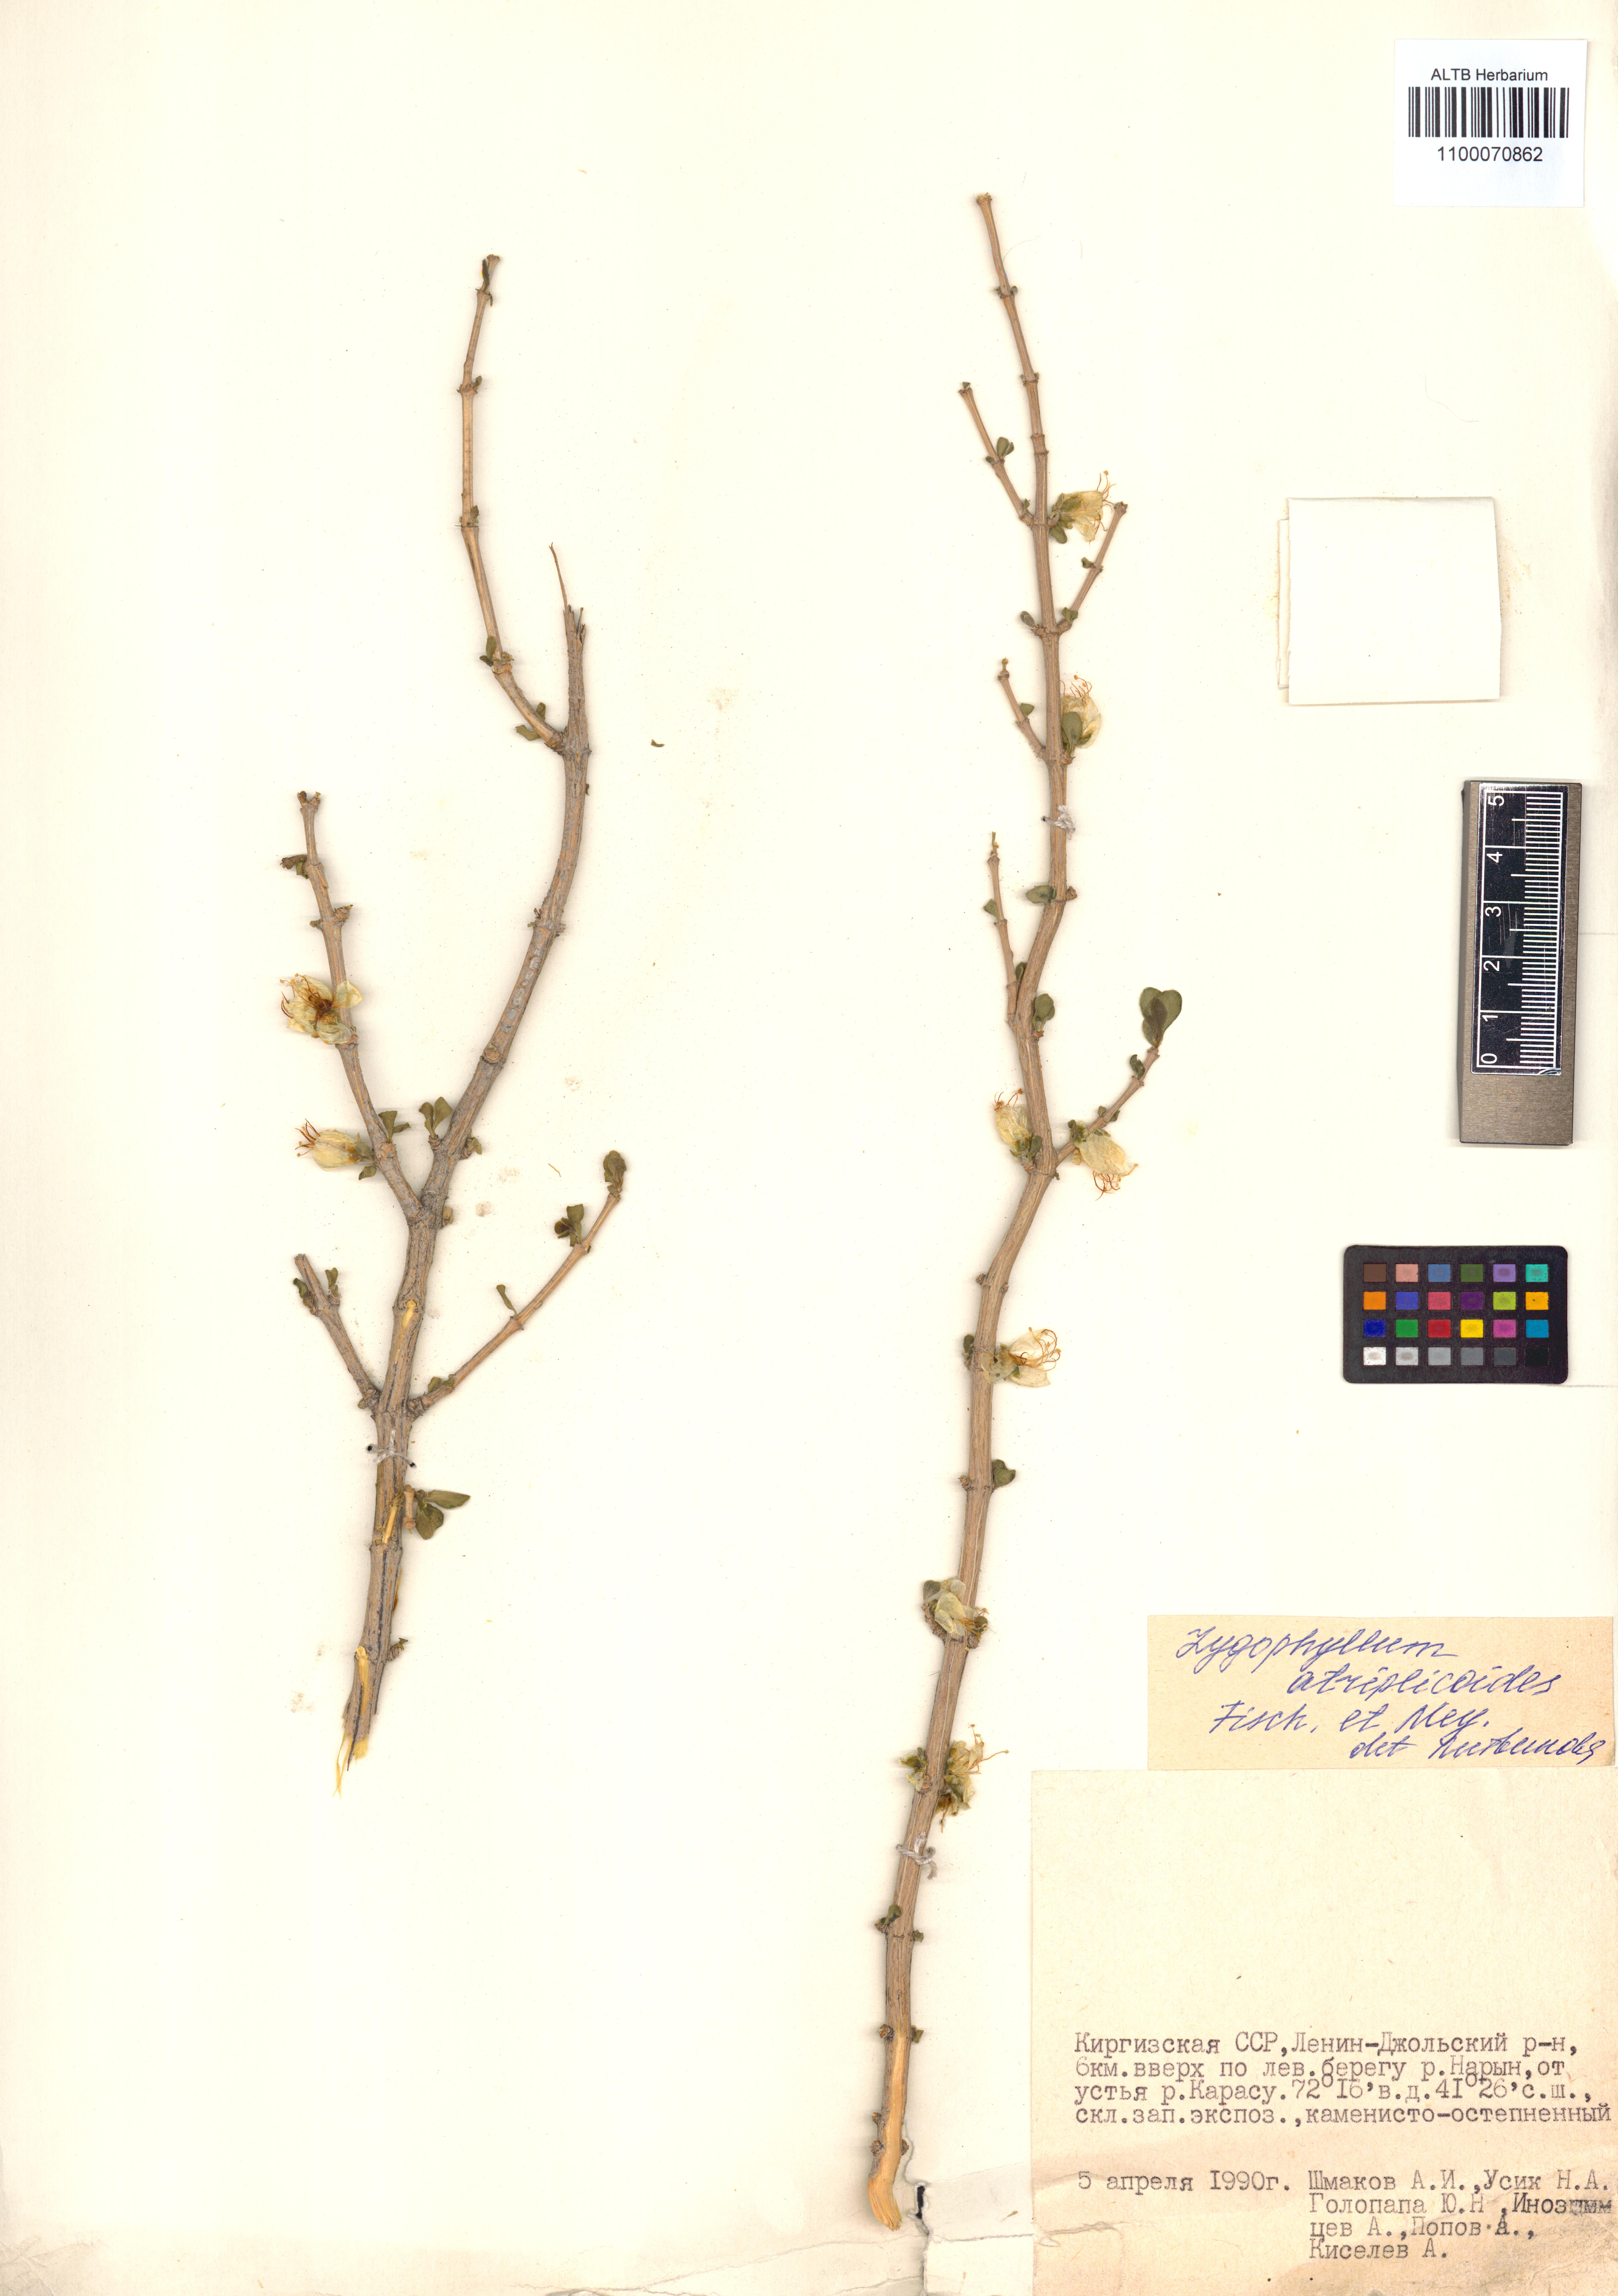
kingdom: Plantae
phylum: Tracheophyta
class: Magnoliopsida
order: Zygophyllales
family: Zygophyllaceae
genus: Zygophyllum
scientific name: Zygophyllum atriplicoides
